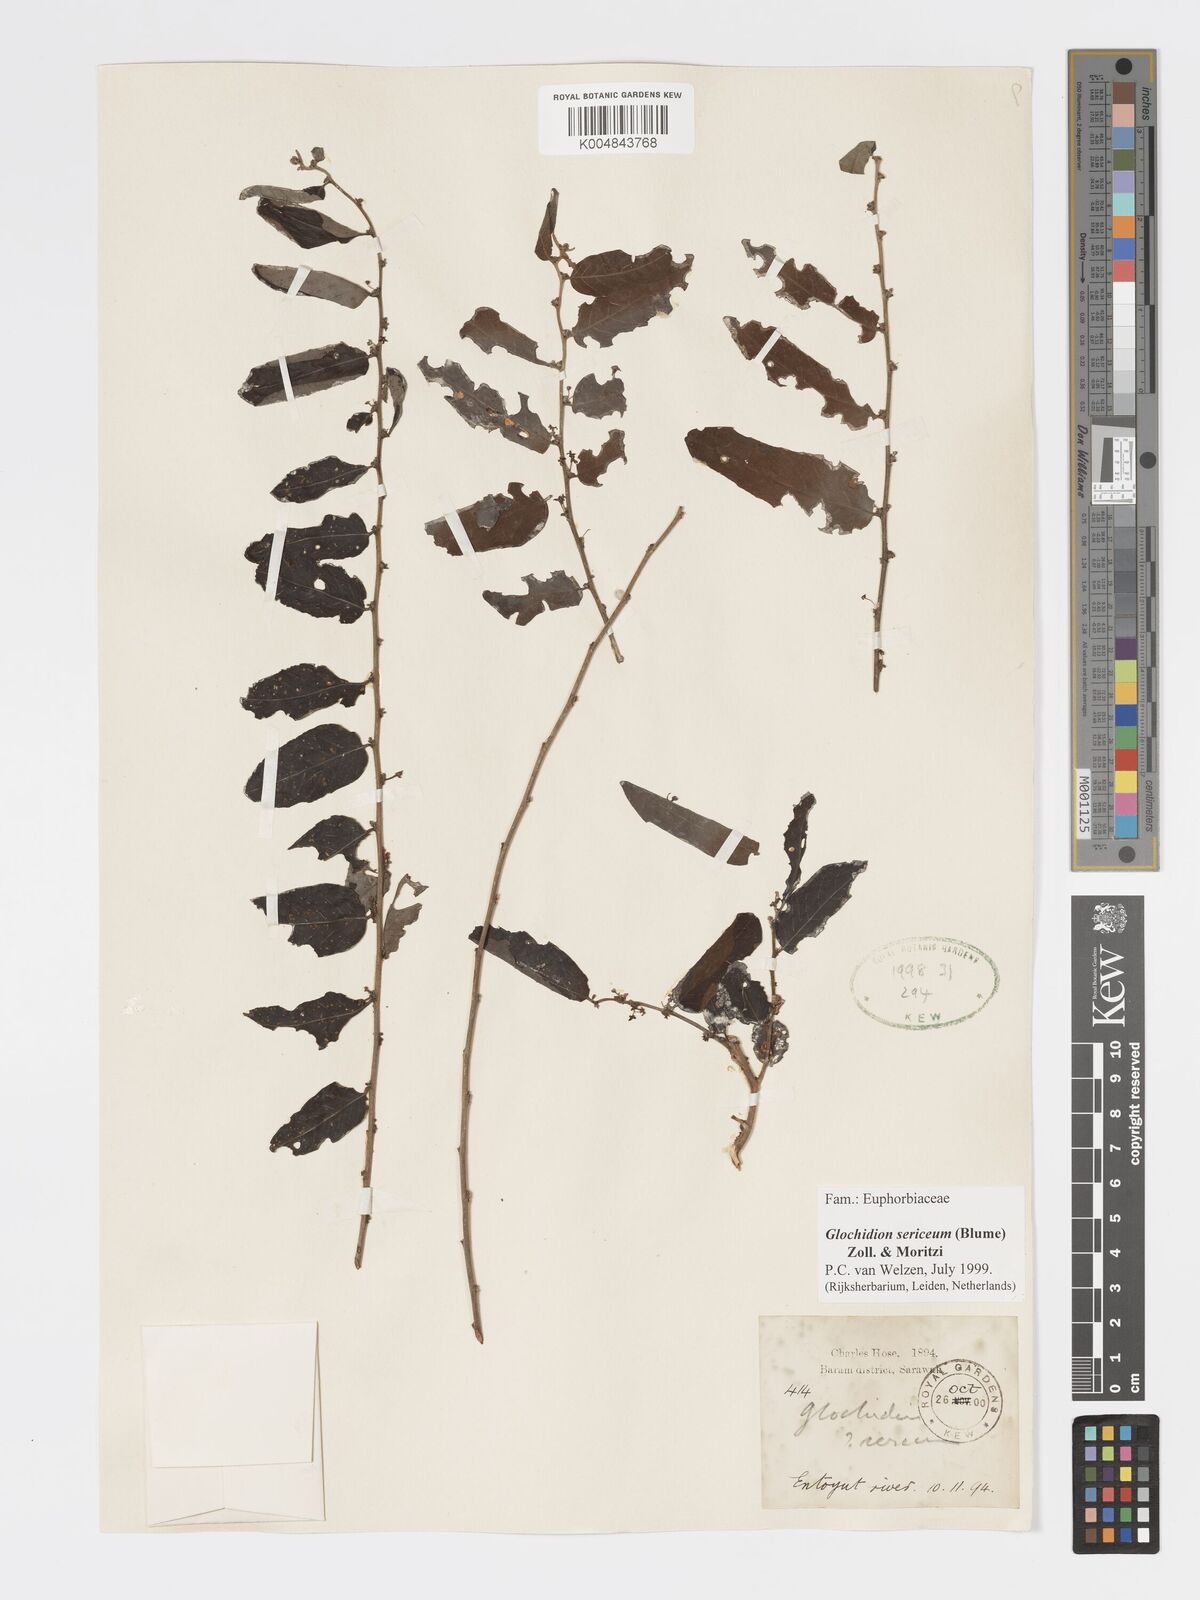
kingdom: Plantae
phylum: Tracheophyta
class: Magnoliopsida
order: Malpighiales
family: Phyllanthaceae
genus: Glochidion
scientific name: Glochidion sericeum
